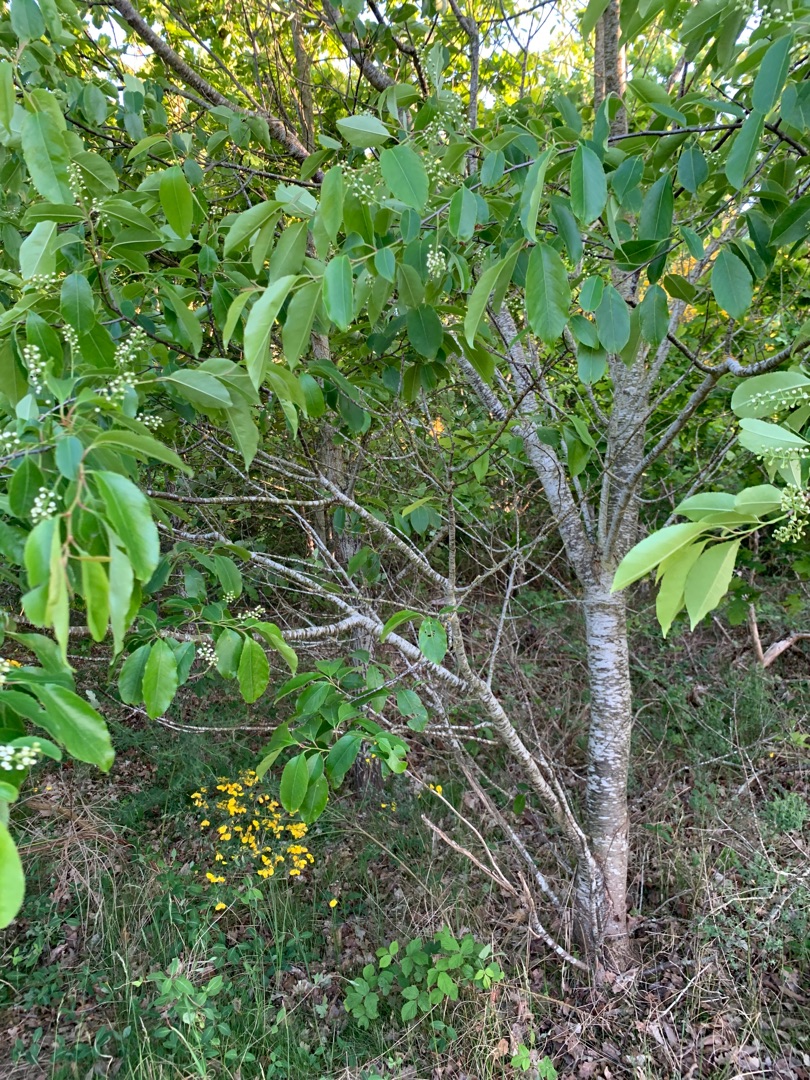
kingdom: Plantae
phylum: Tracheophyta
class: Magnoliopsida
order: Rosales
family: Rosaceae
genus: Prunus
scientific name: Prunus serotina
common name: Glansbladet hæg
